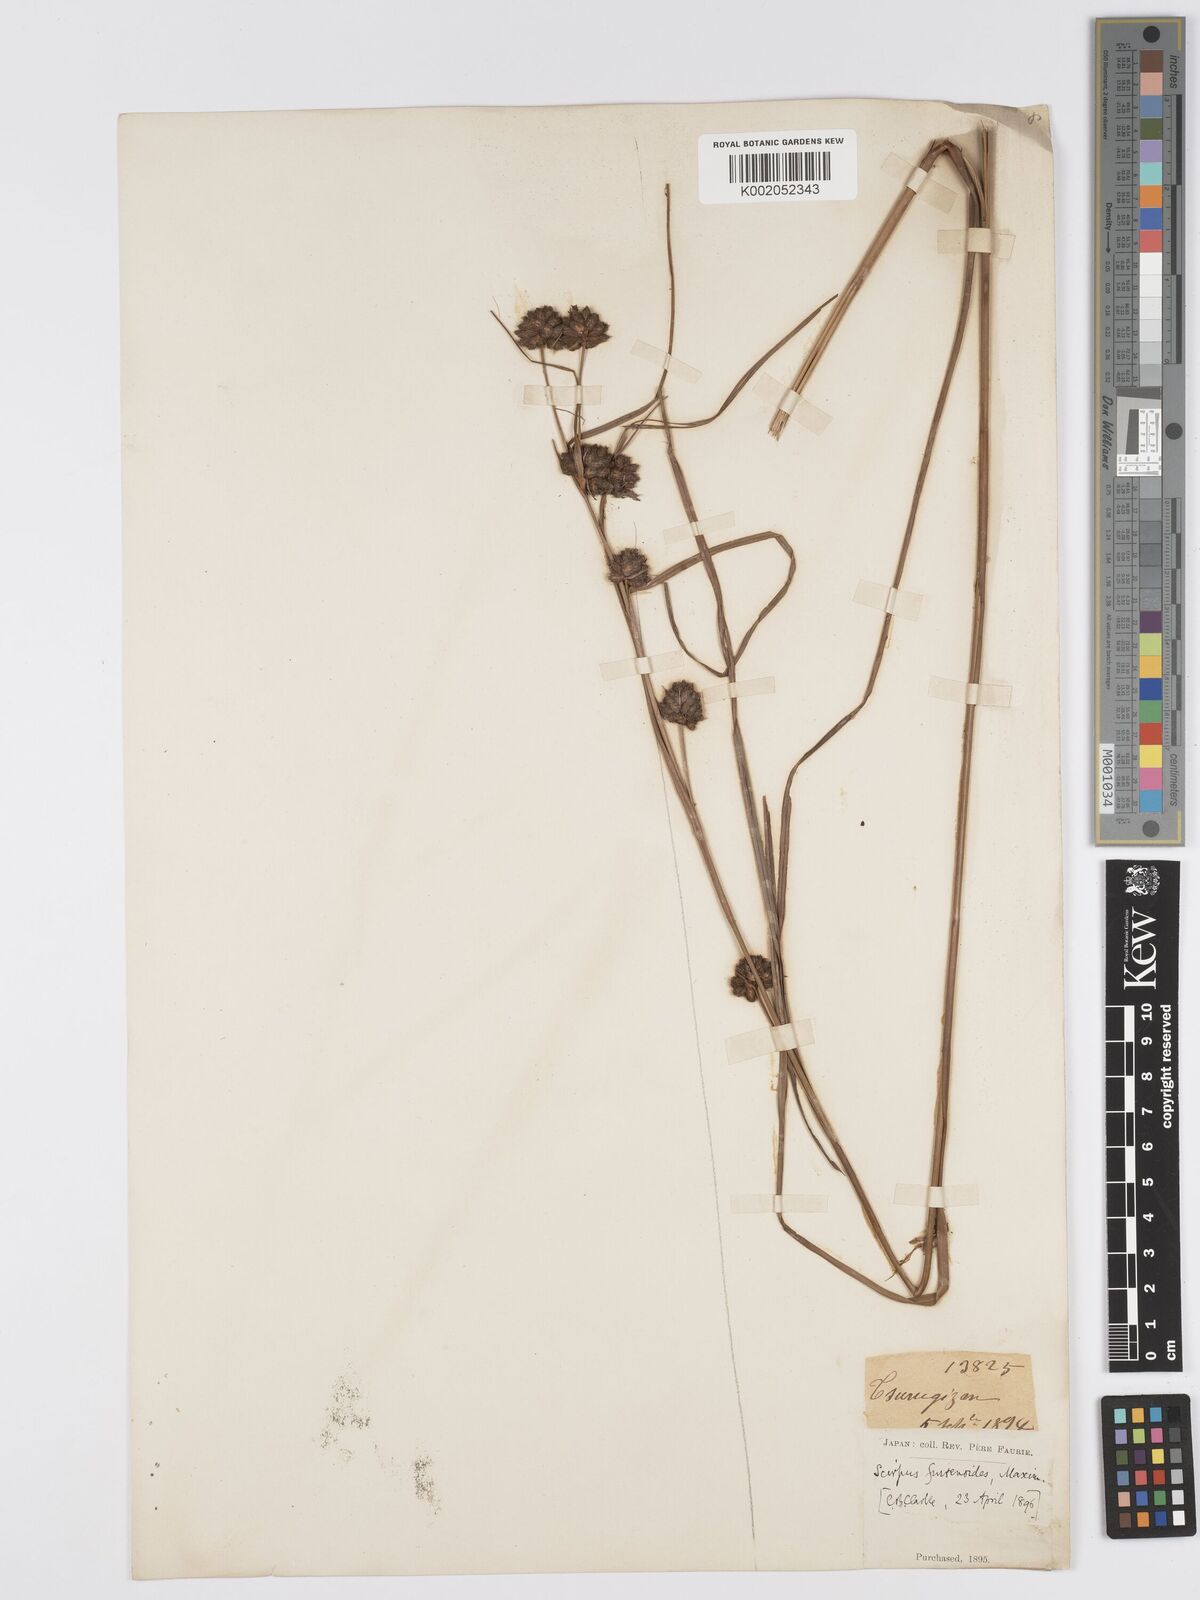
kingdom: Plantae
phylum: Tracheophyta
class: Liliopsida
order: Poales
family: Cyperaceae
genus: Scirpus
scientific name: Scirpus fuirenoides
